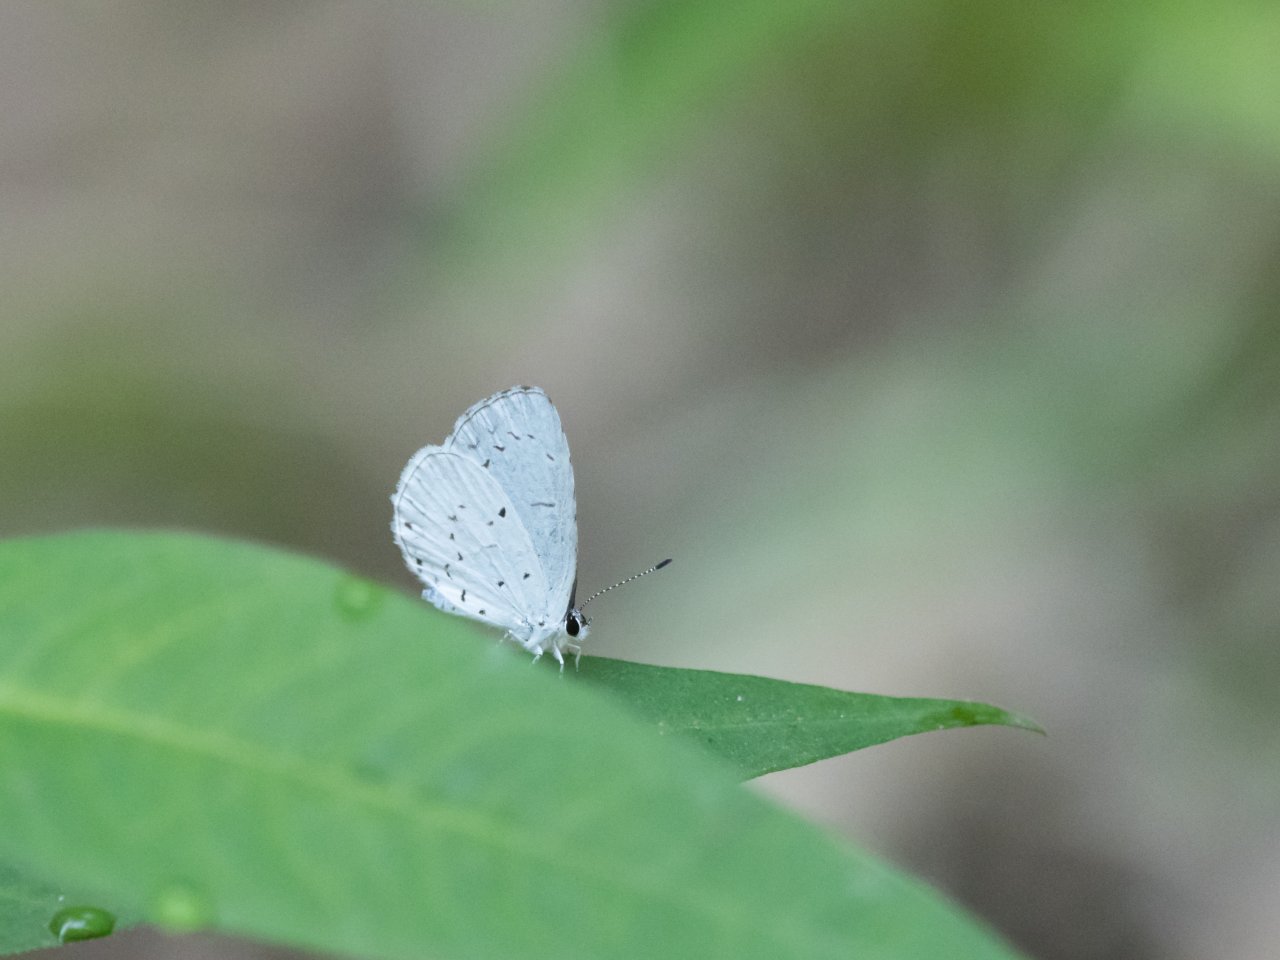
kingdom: Animalia
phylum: Arthropoda
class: Insecta
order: Lepidoptera
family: Lycaenidae
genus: Celastrina
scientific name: Celastrina
